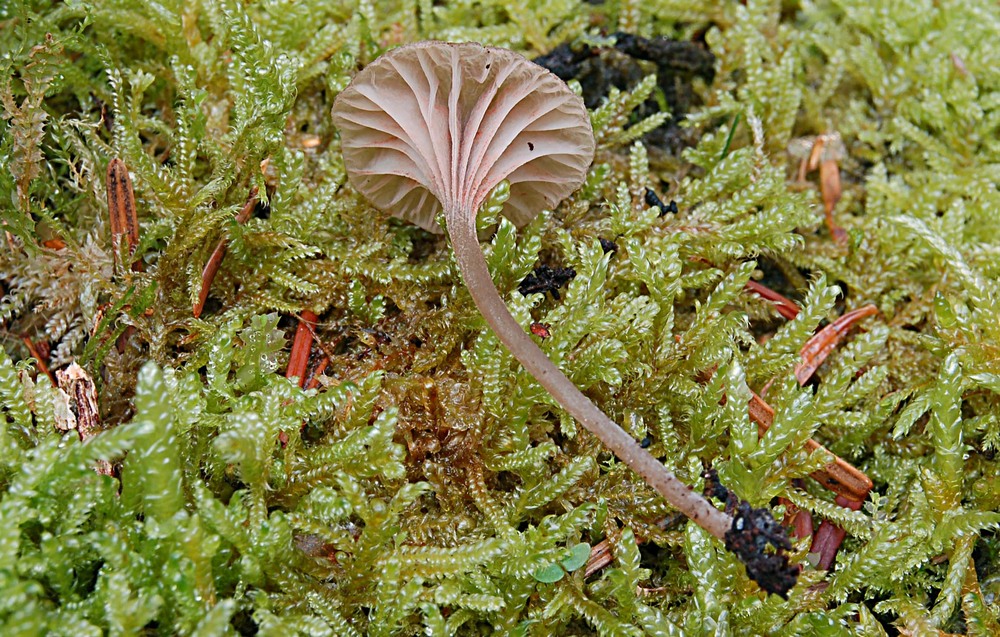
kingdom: Fungi
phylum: Basidiomycota
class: Agaricomycetes
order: Agaricales
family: Entolomataceae
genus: Entoloma
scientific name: Entoloma rhodocylix
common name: fjernbladet rødblad
